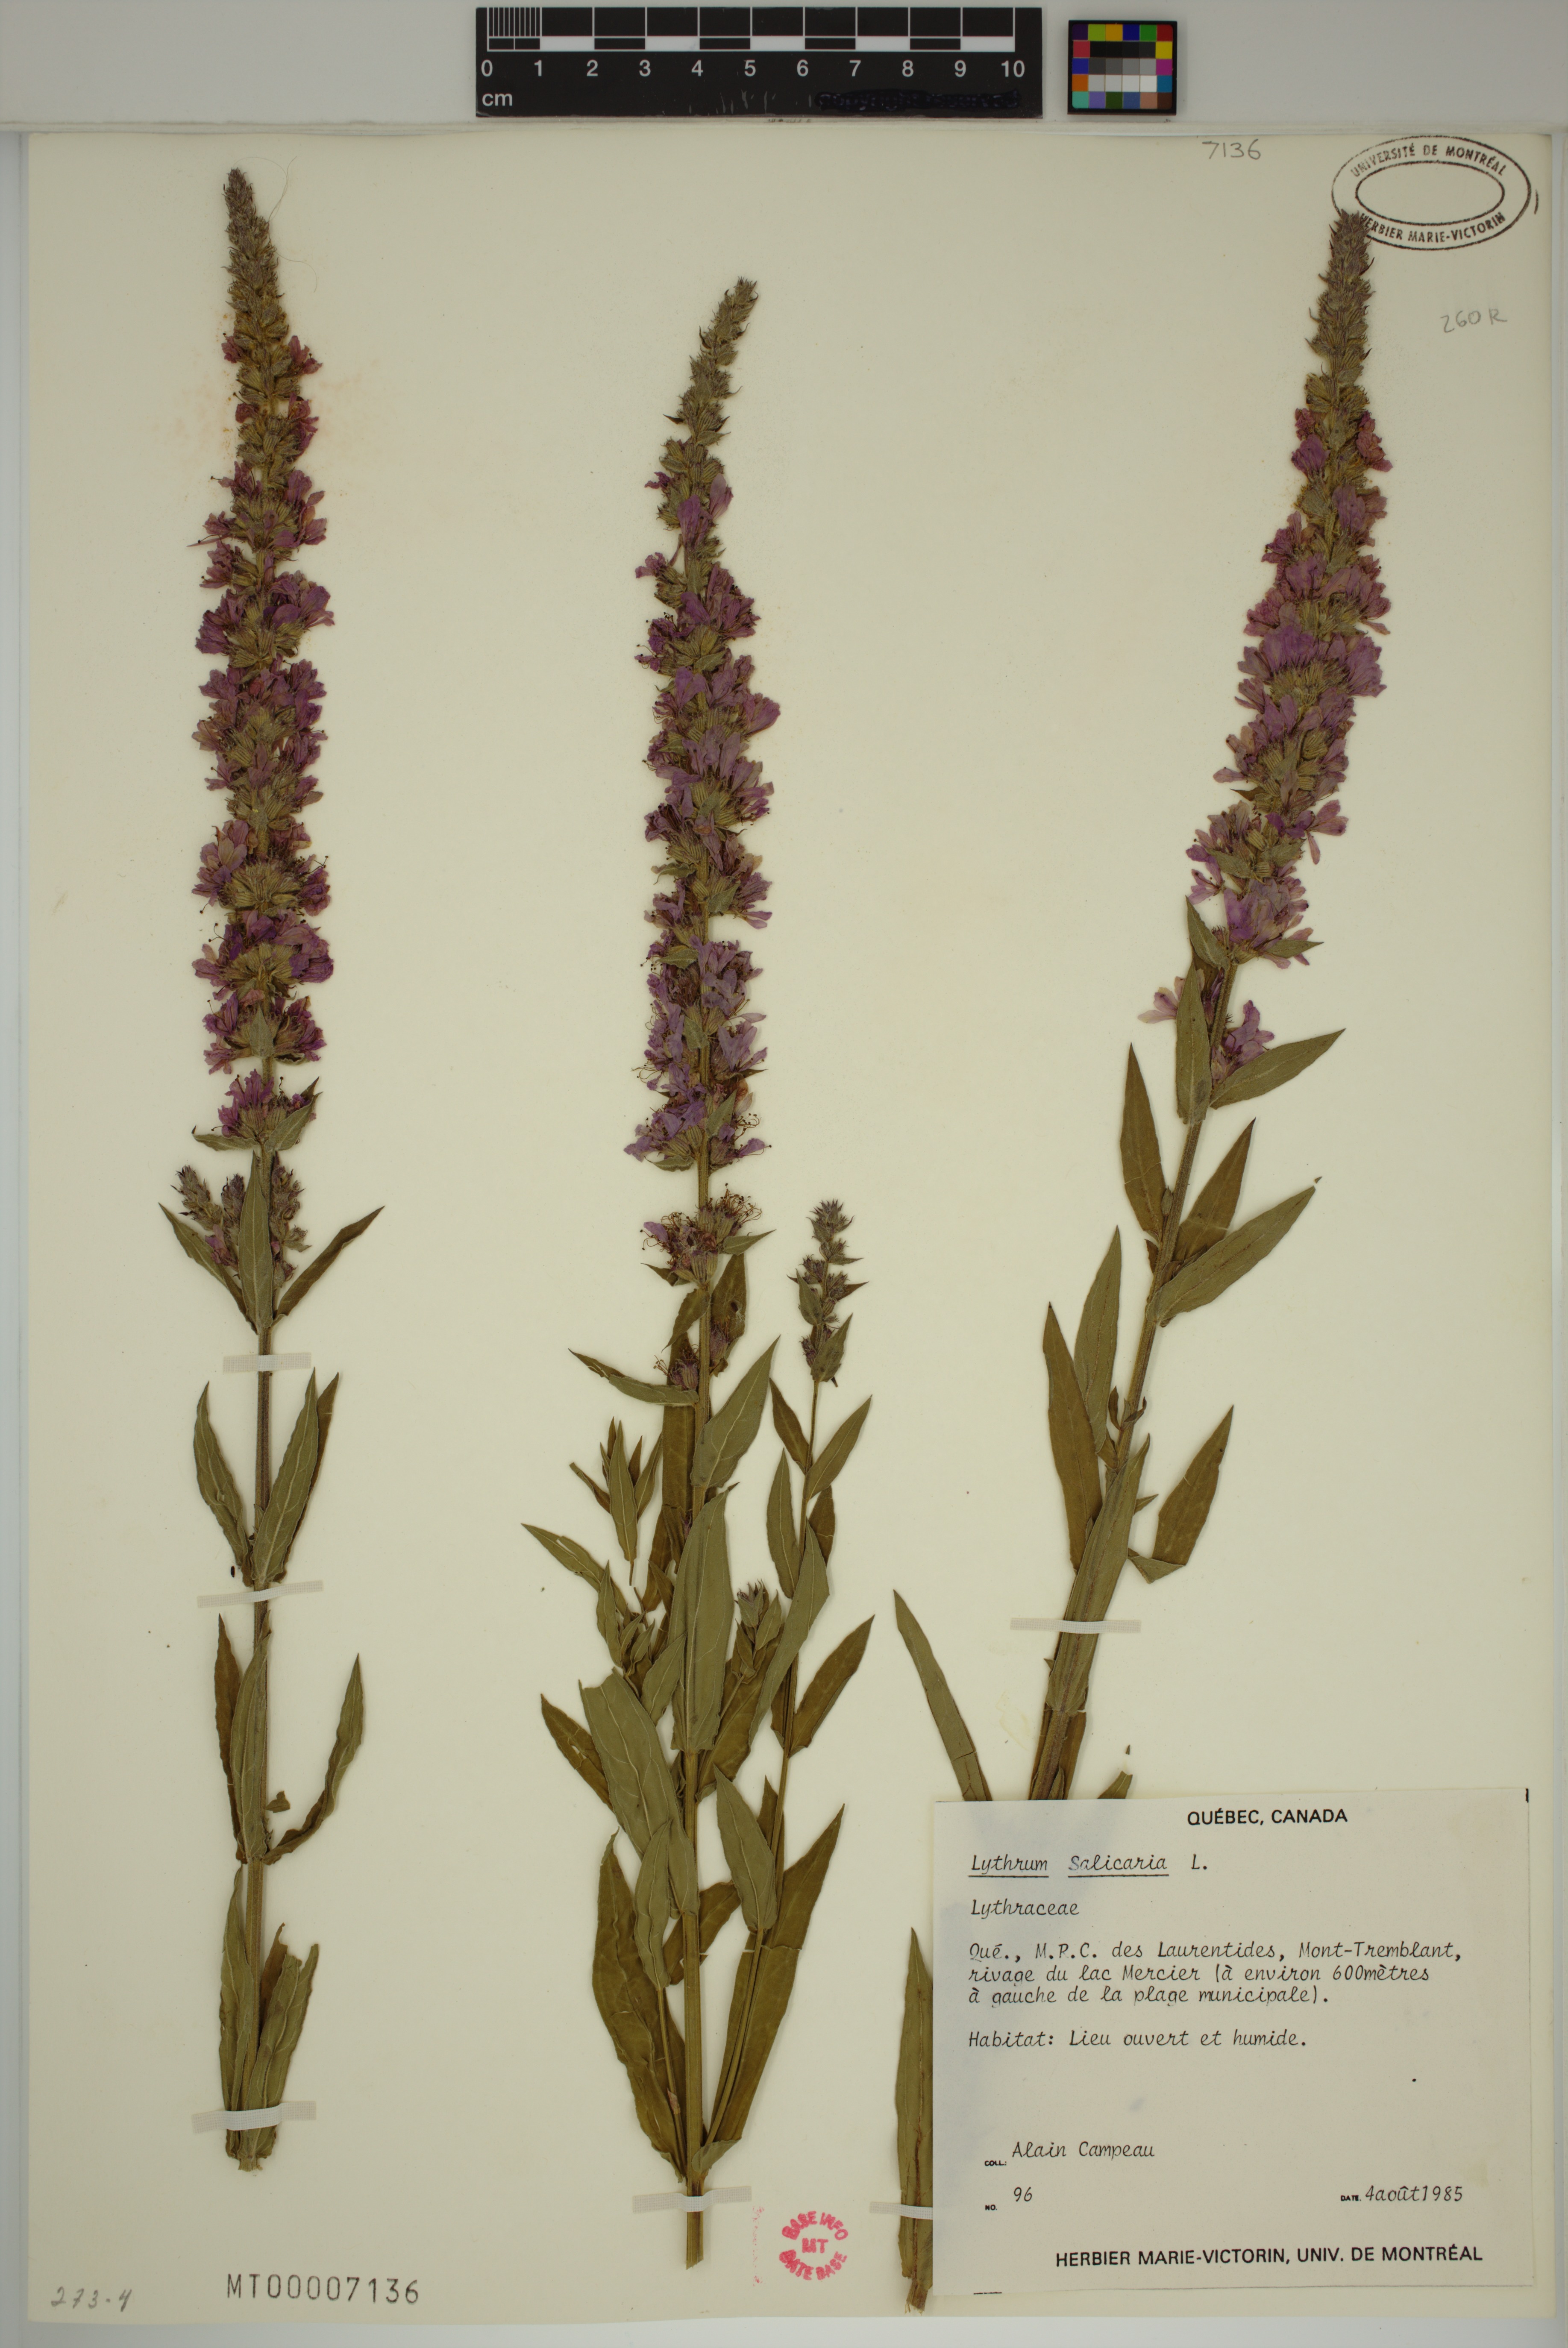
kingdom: Plantae
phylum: Tracheophyta
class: Magnoliopsida
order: Myrtales
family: Lythraceae
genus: Lythrum
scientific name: Lythrum salicaria
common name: Purple loosestrife
